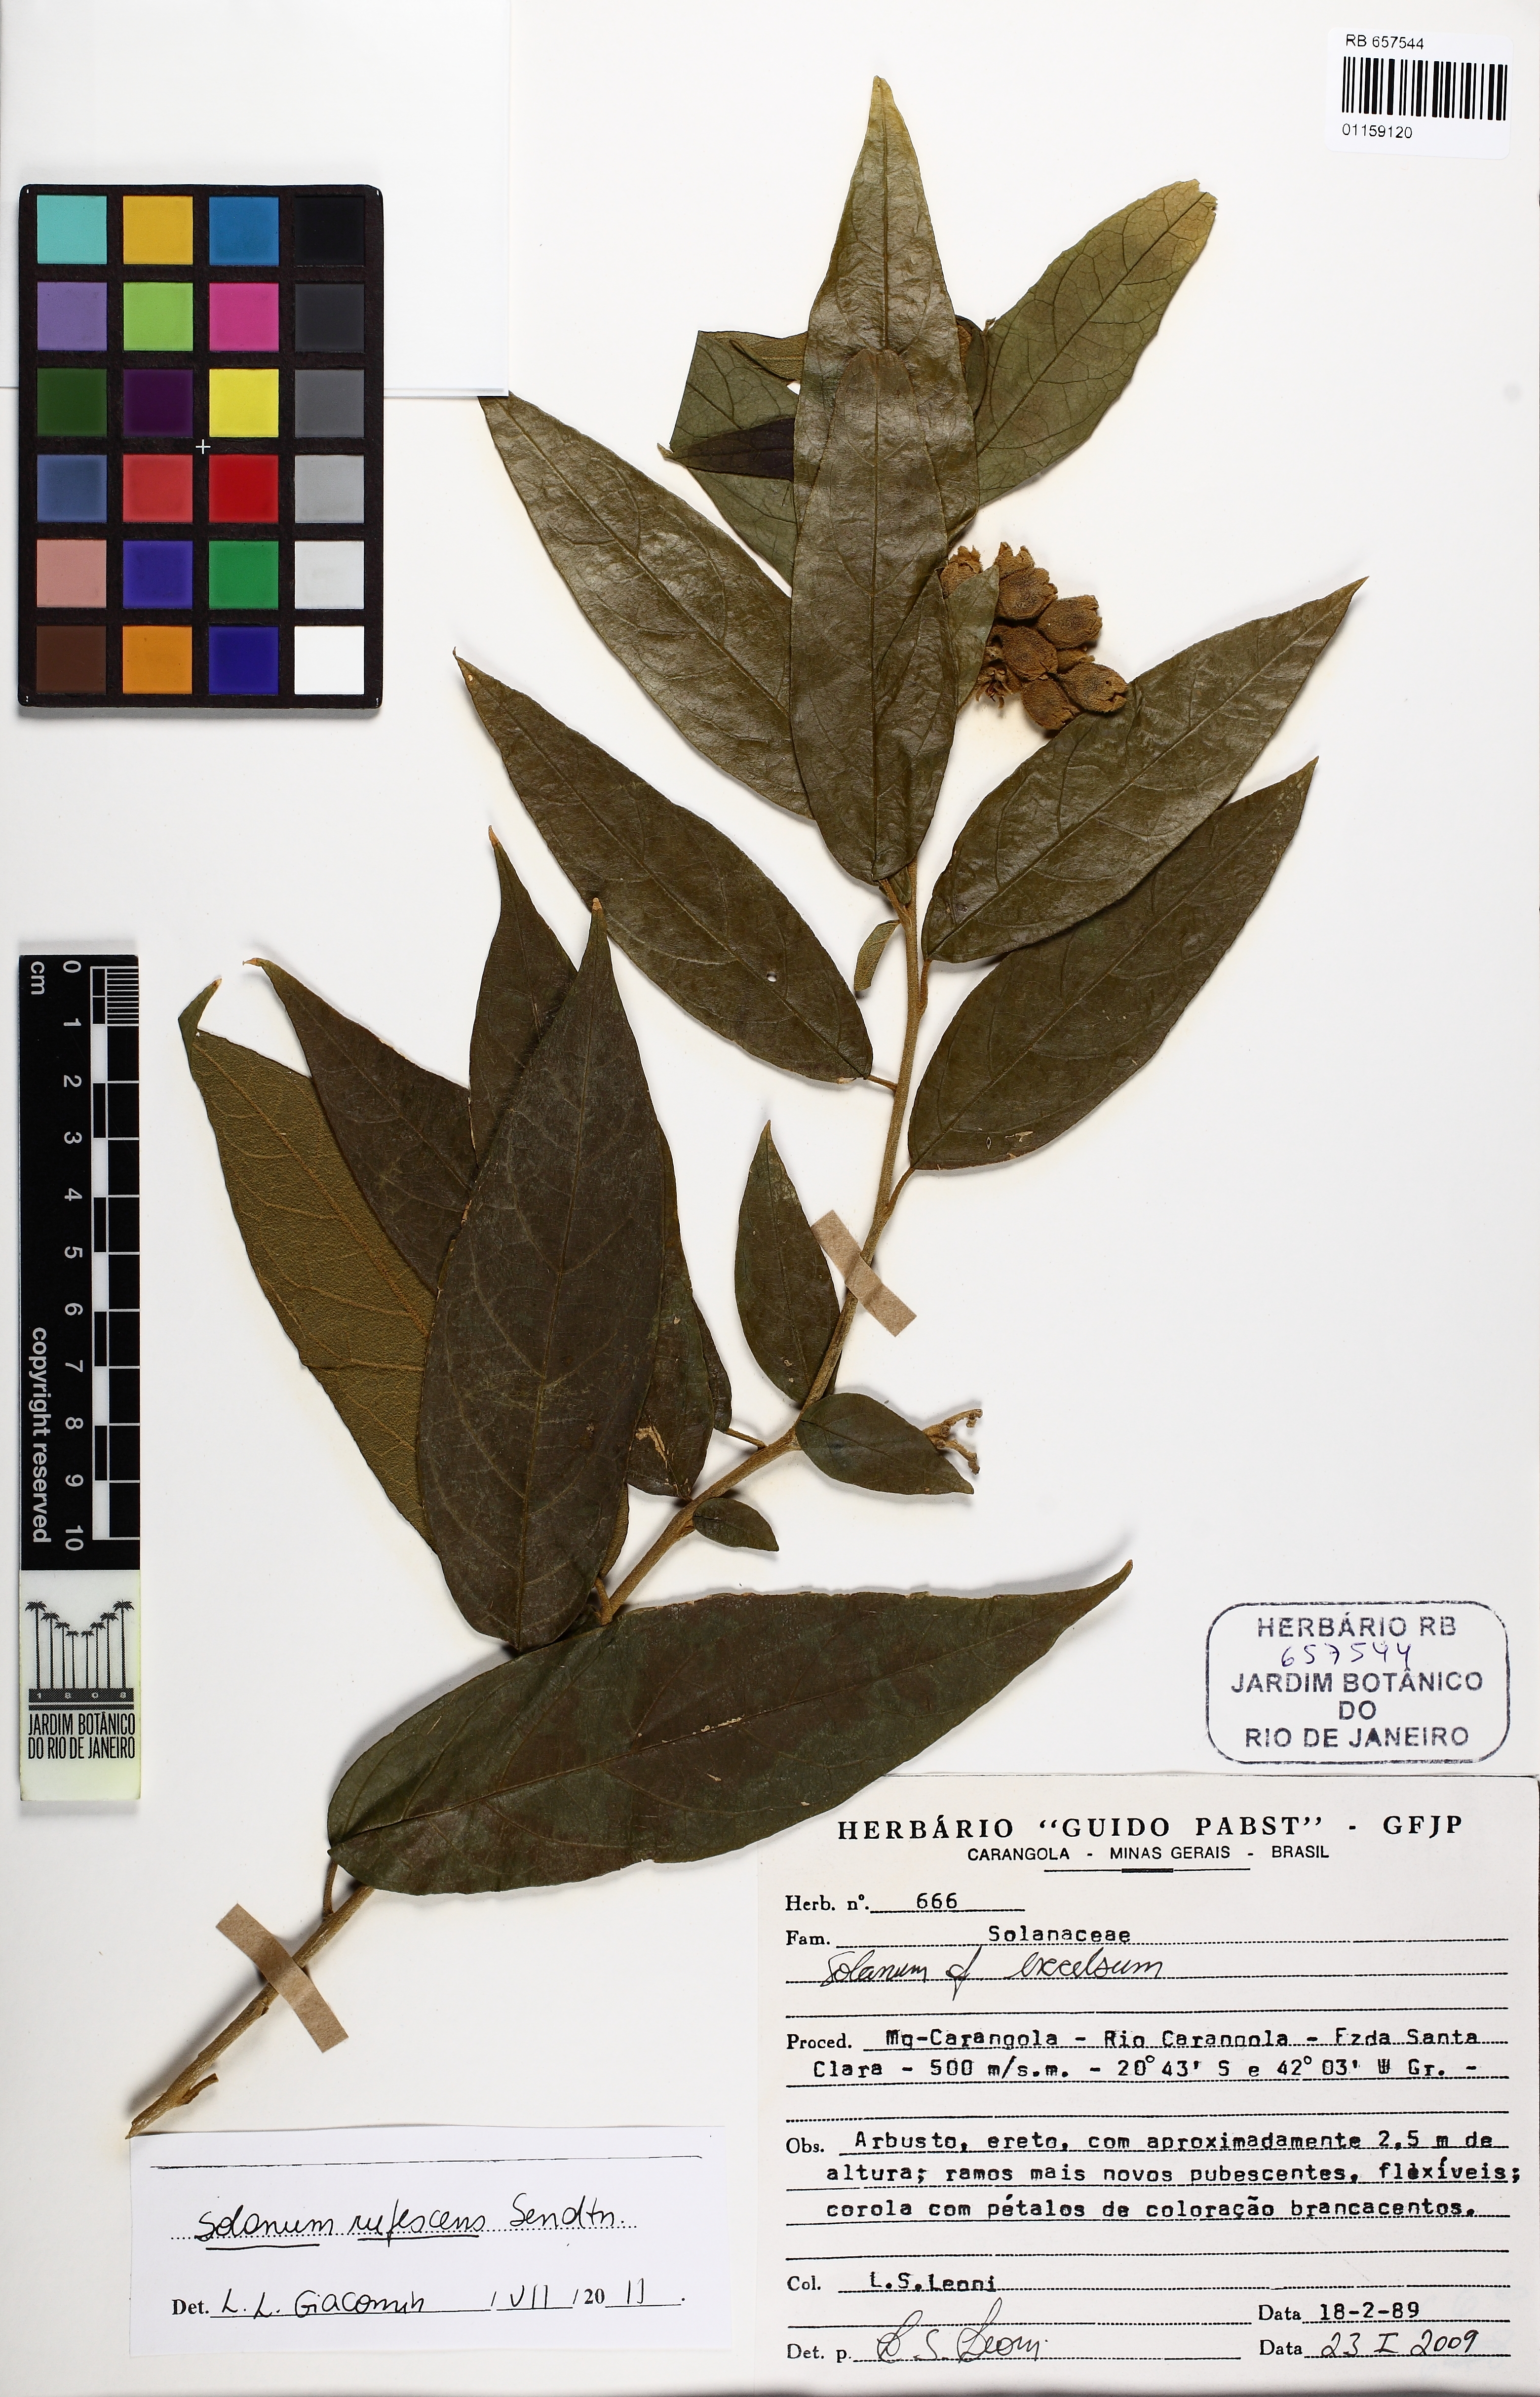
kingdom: Plantae
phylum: Tracheophyta
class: Magnoliopsida
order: Solanales
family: Solanaceae
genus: Solanum
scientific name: Solanum rufescens
